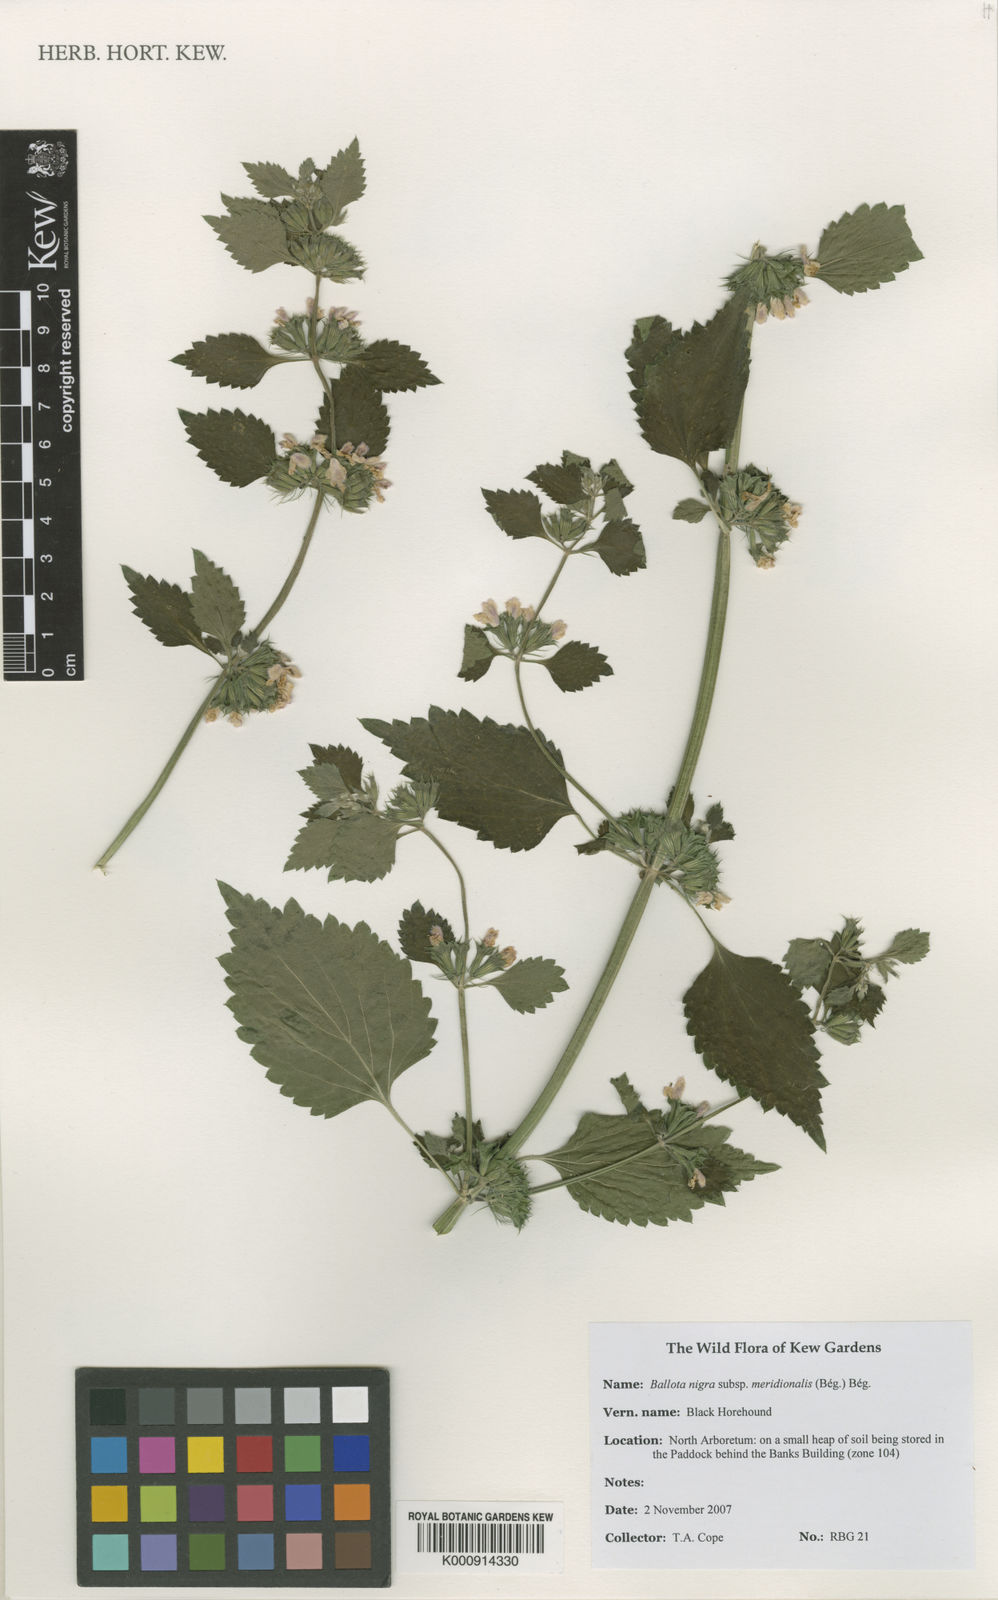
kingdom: Plantae
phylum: Tracheophyta
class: Magnoliopsida
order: Lamiales
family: Lamiaceae
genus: Ballota
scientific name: Ballota
